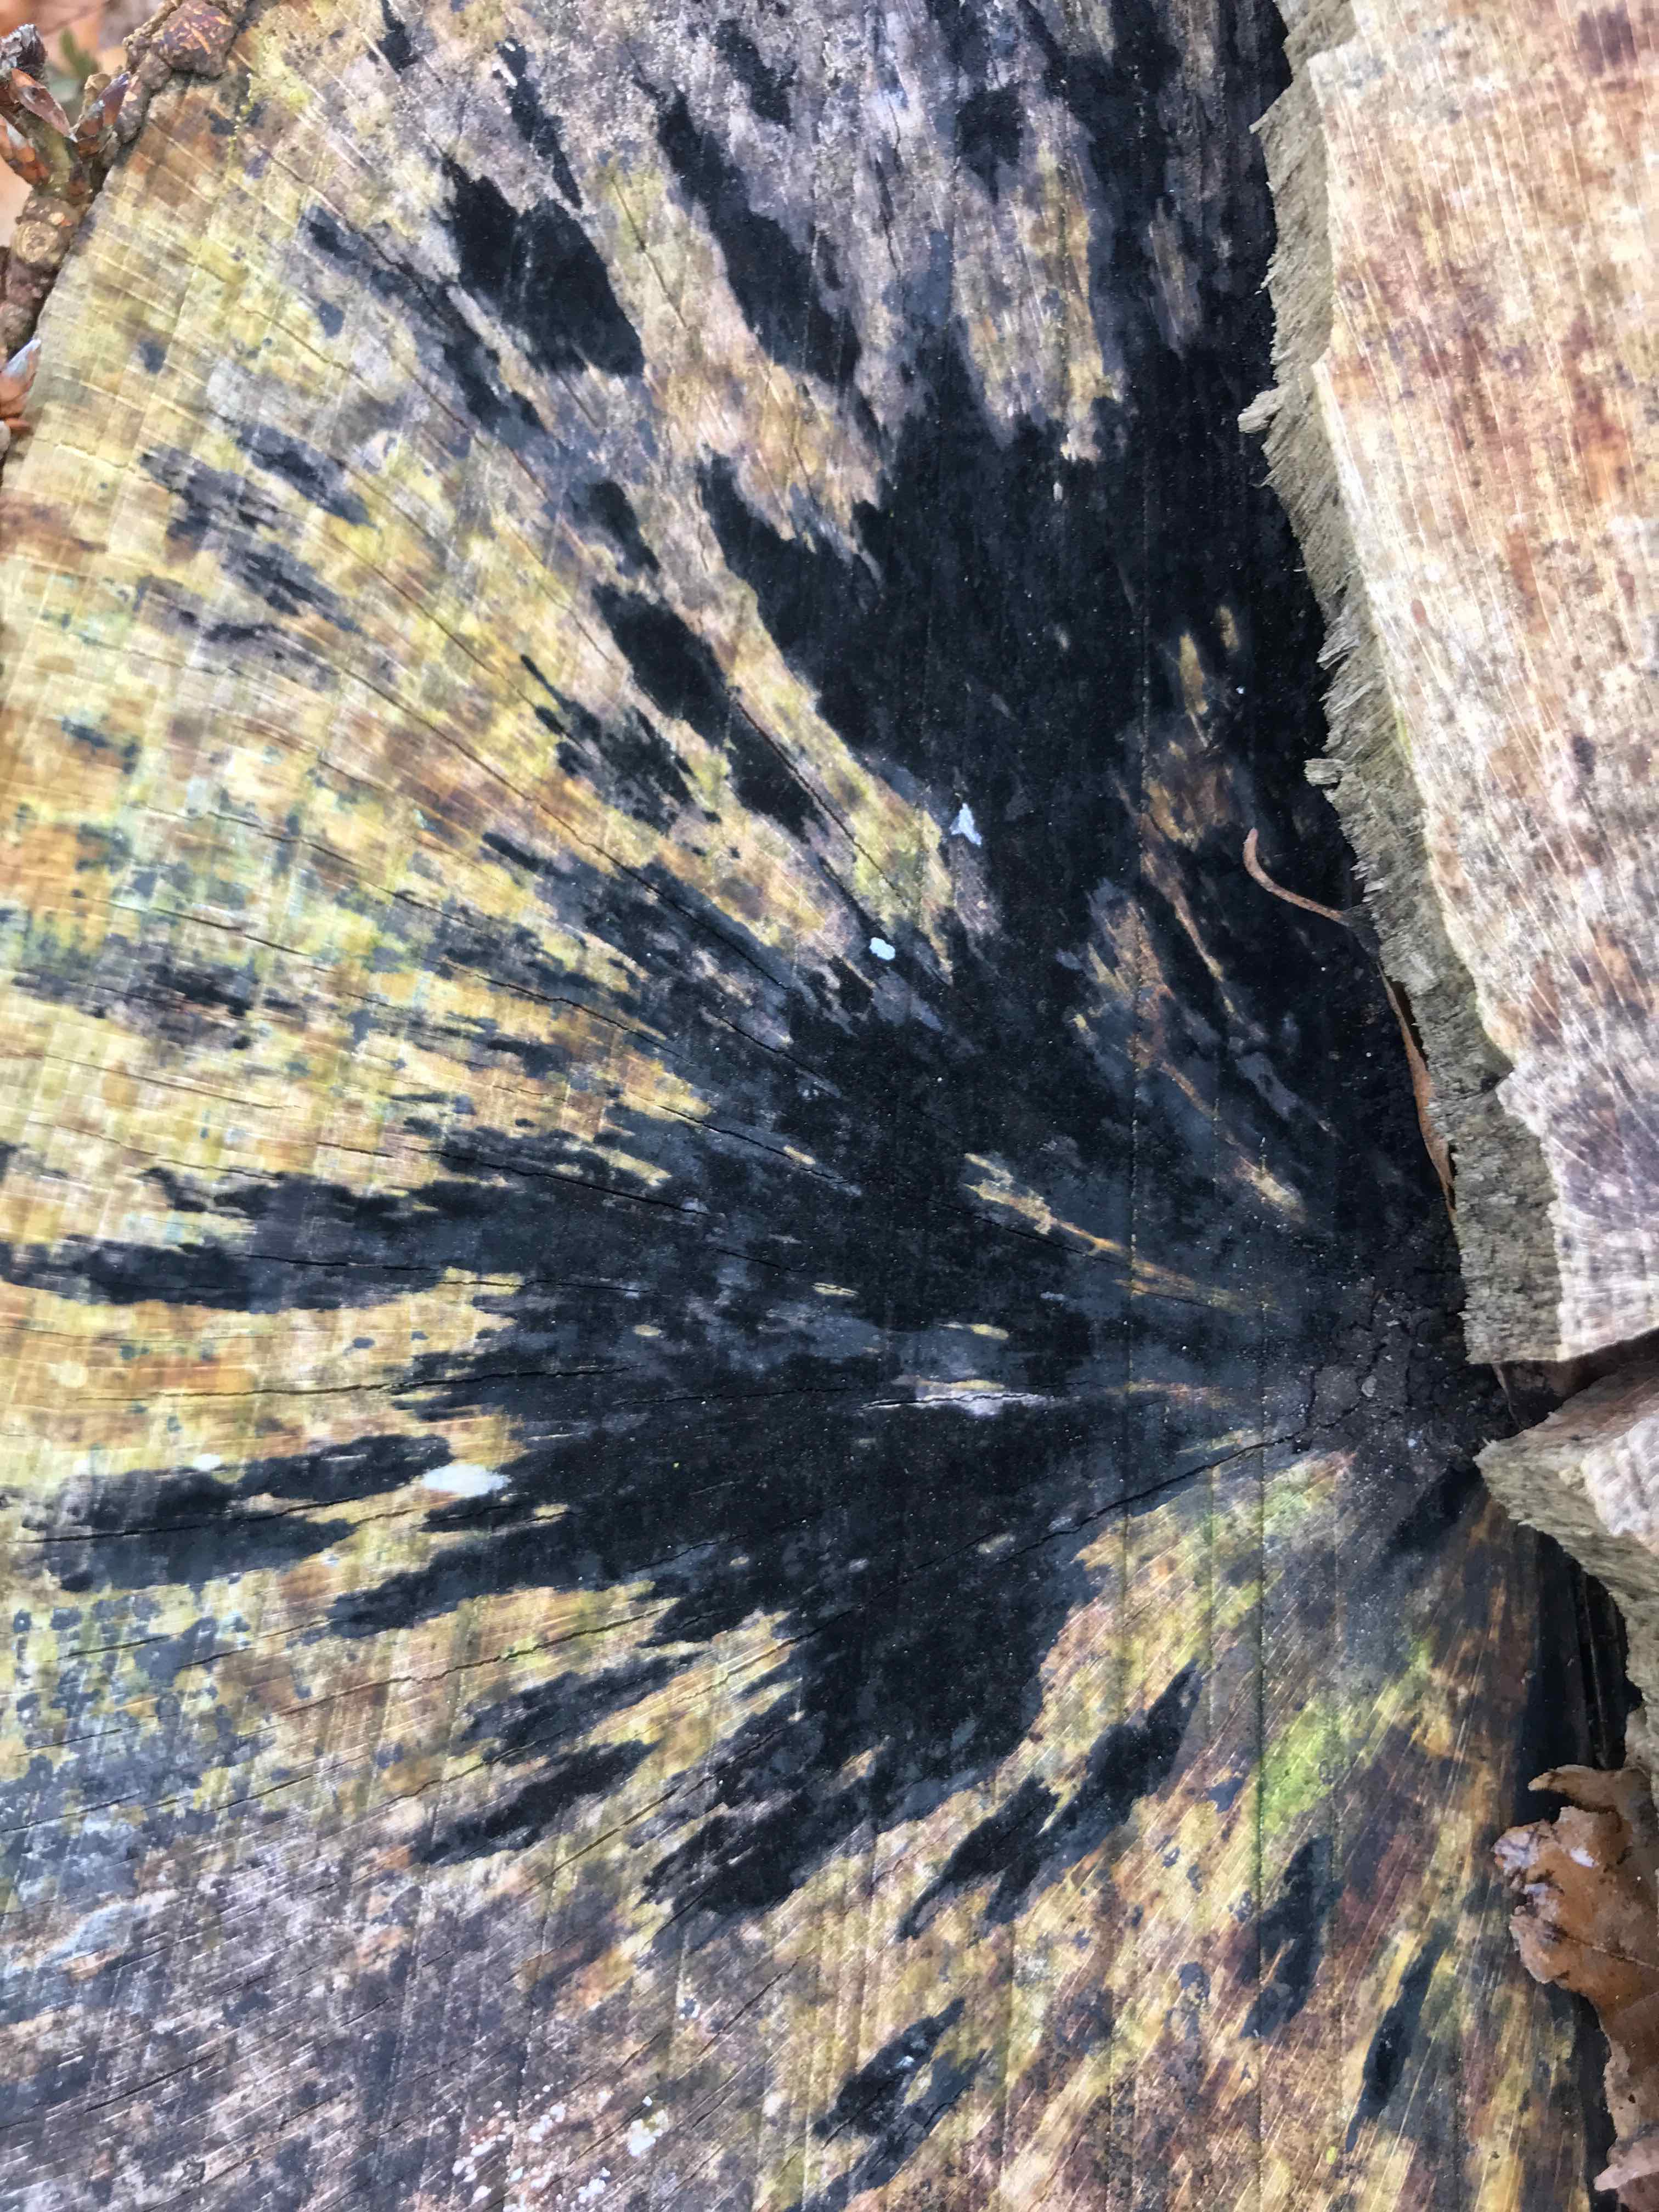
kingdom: Fungi
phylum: Ascomycota
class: Leotiomycetes
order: Helotiales
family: Helotiaceae
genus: Bispora
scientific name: Bispora pallescens
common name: måtte-snitskive
